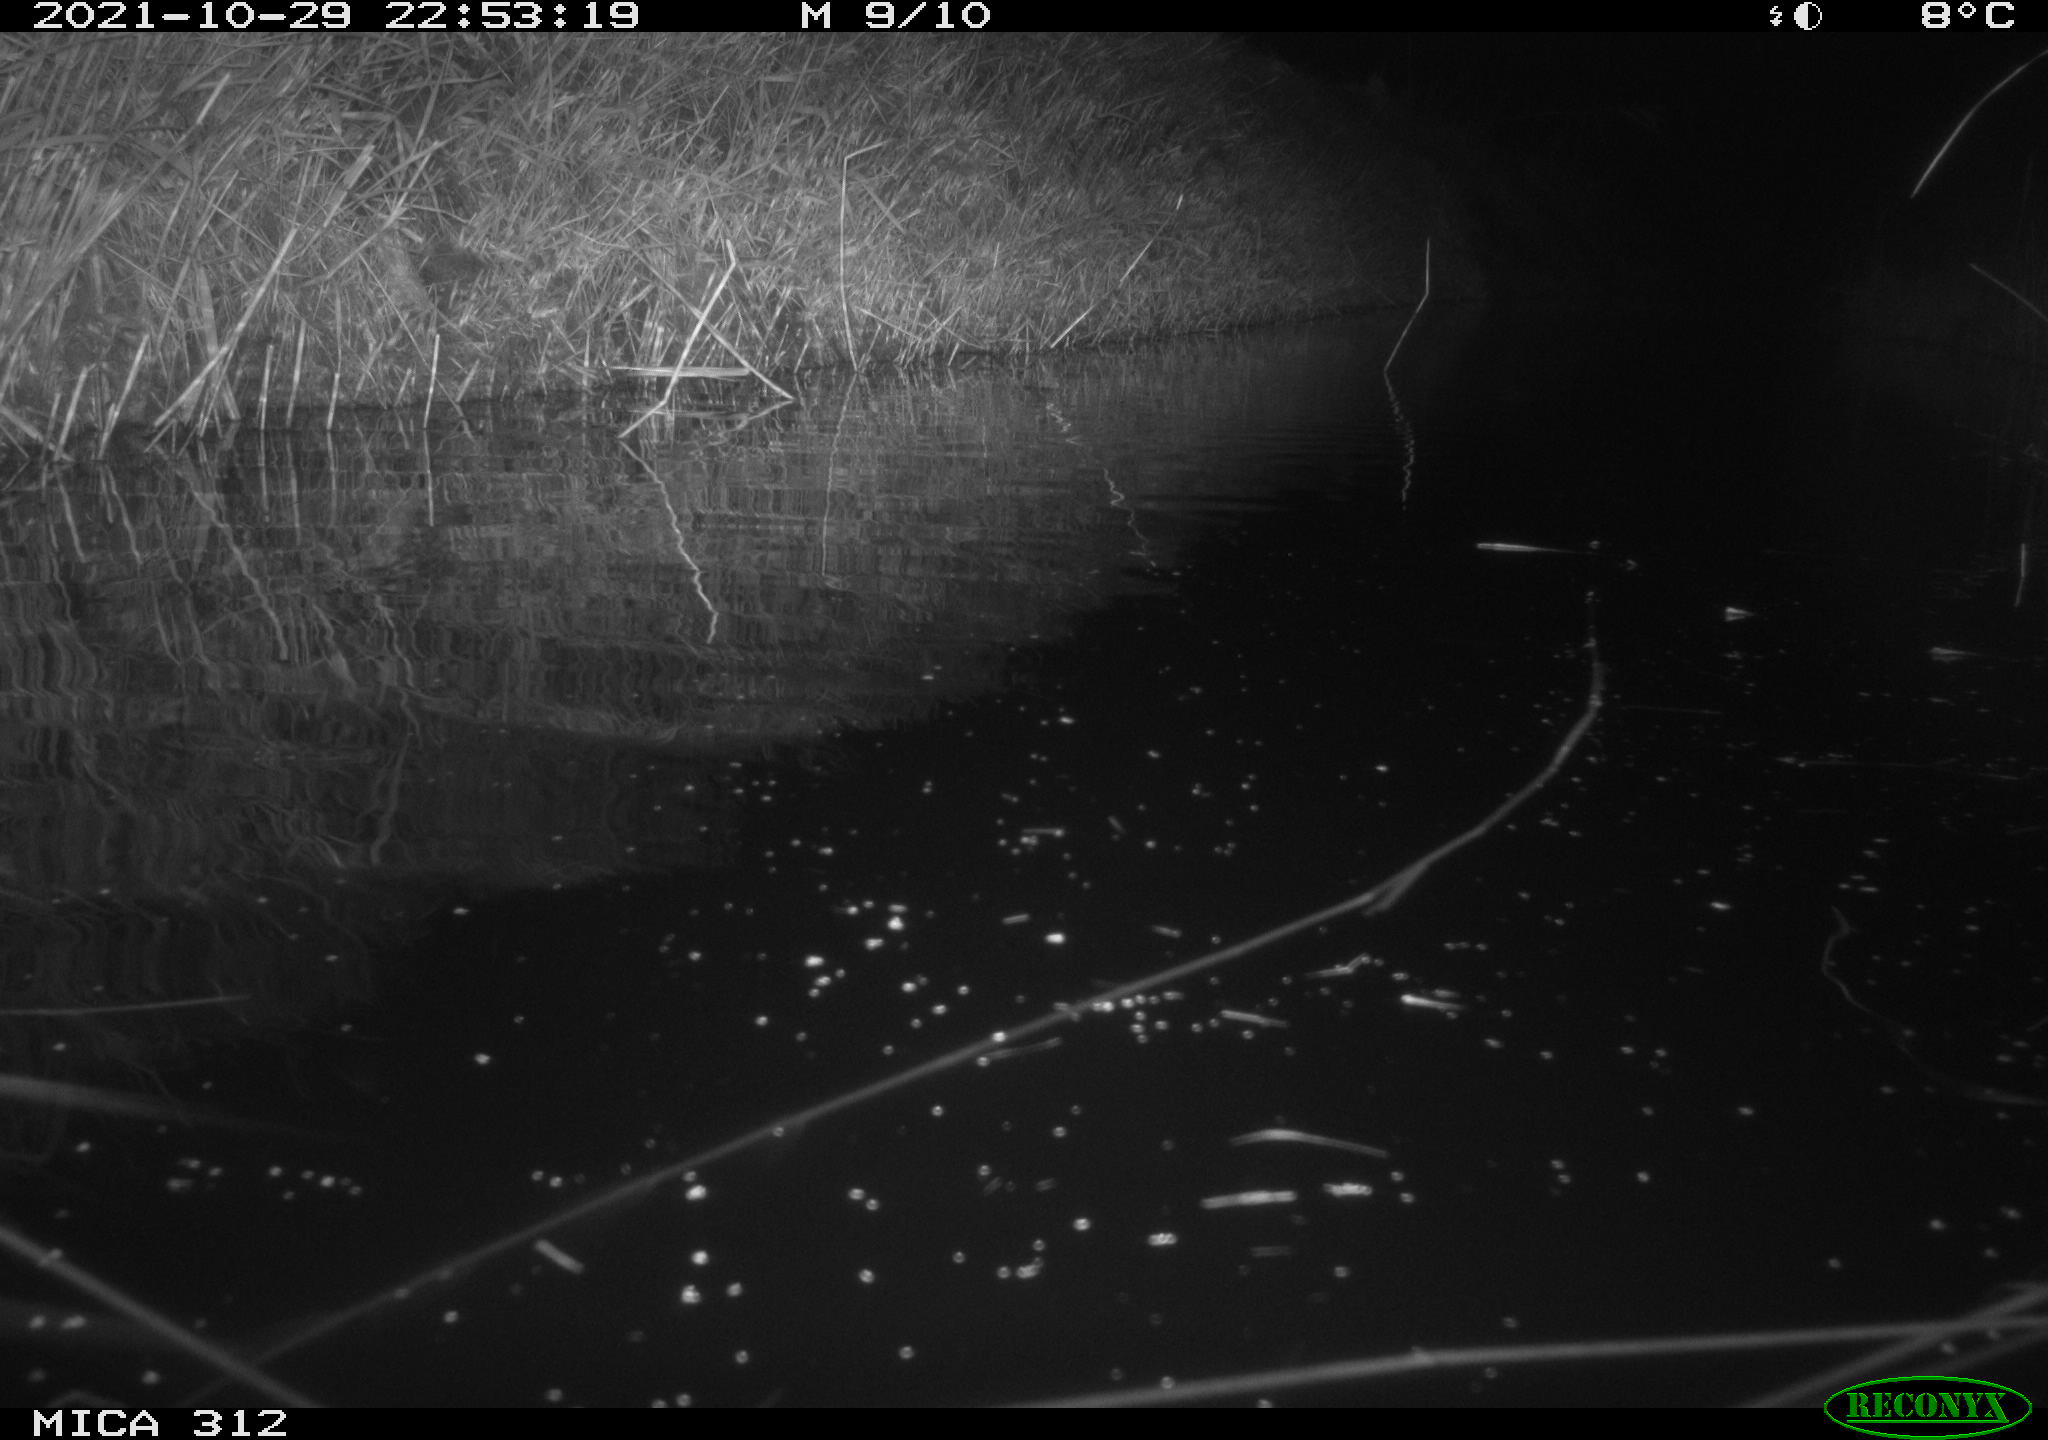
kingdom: Animalia
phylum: Chordata
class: Mammalia
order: Rodentia
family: Muridae
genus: Rattus
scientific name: Rattus norvegicus
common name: Brown rat
